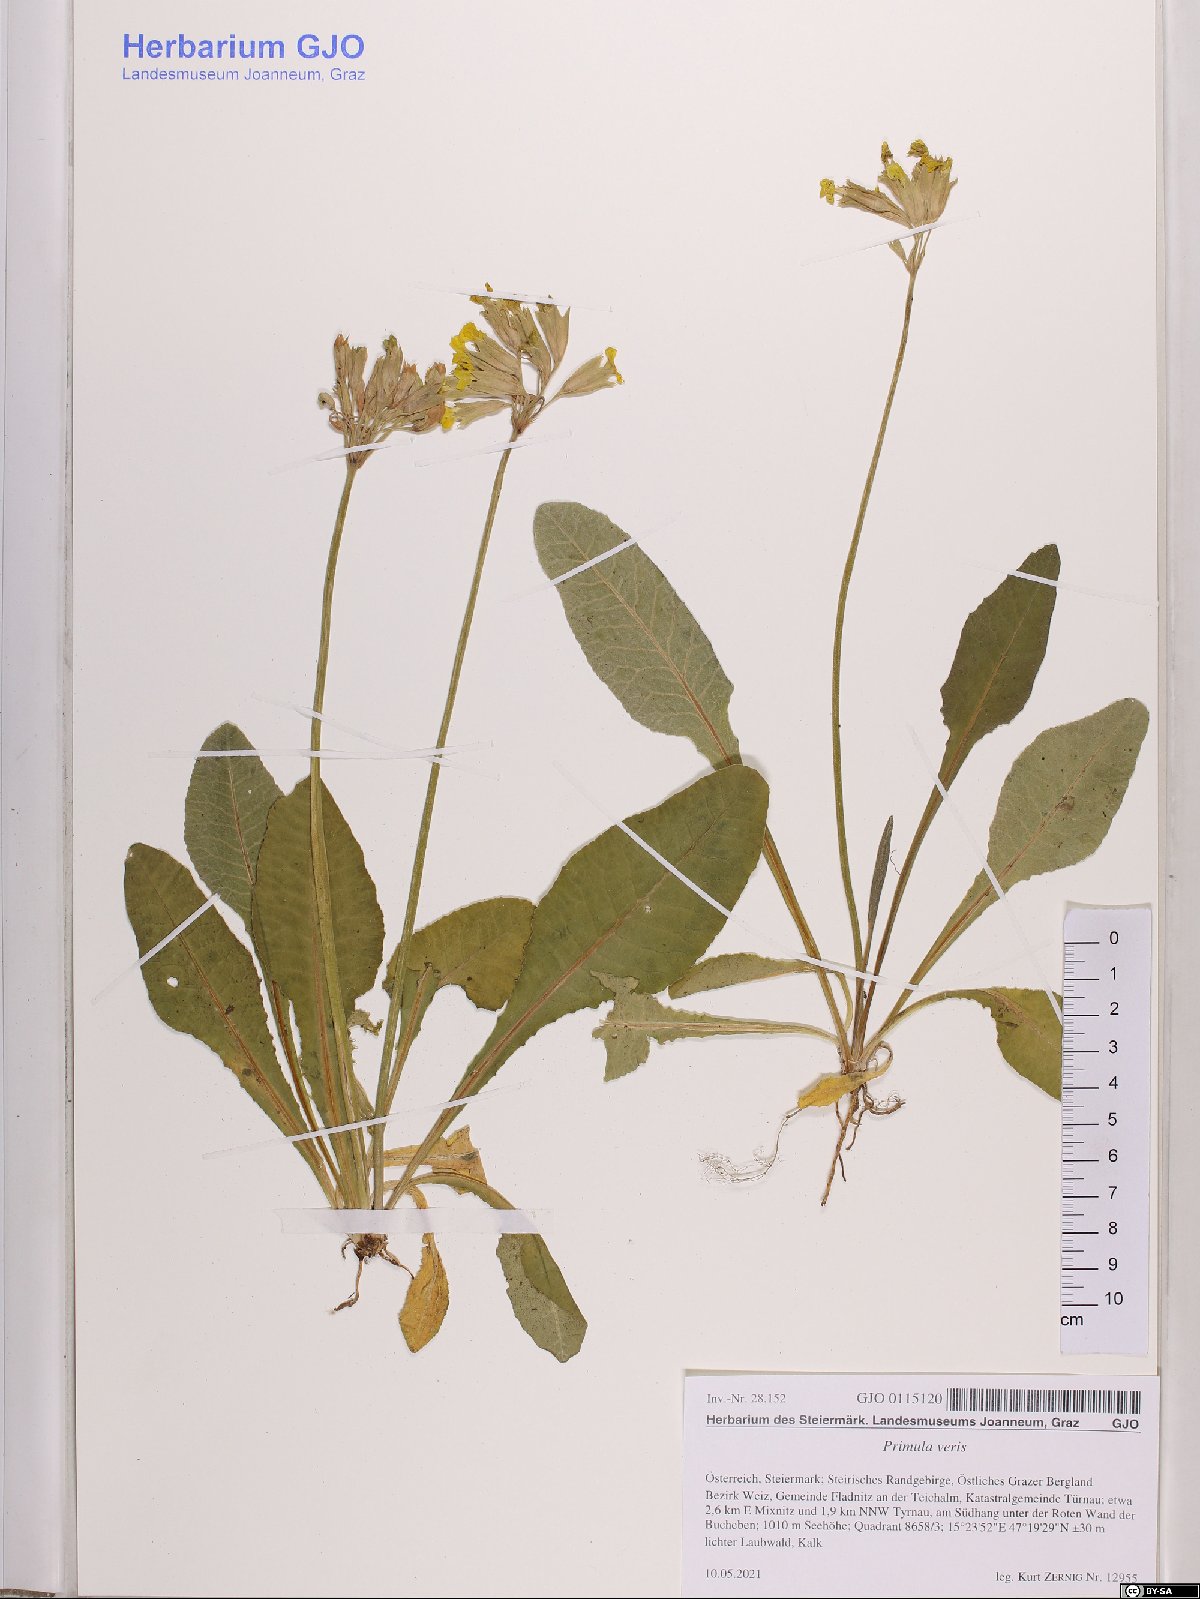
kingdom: Plantae
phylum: Tracheophyta
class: Magnoliopsida
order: Ericales
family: Primulaceae
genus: Primula
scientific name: Primula veris
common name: Cowslip
